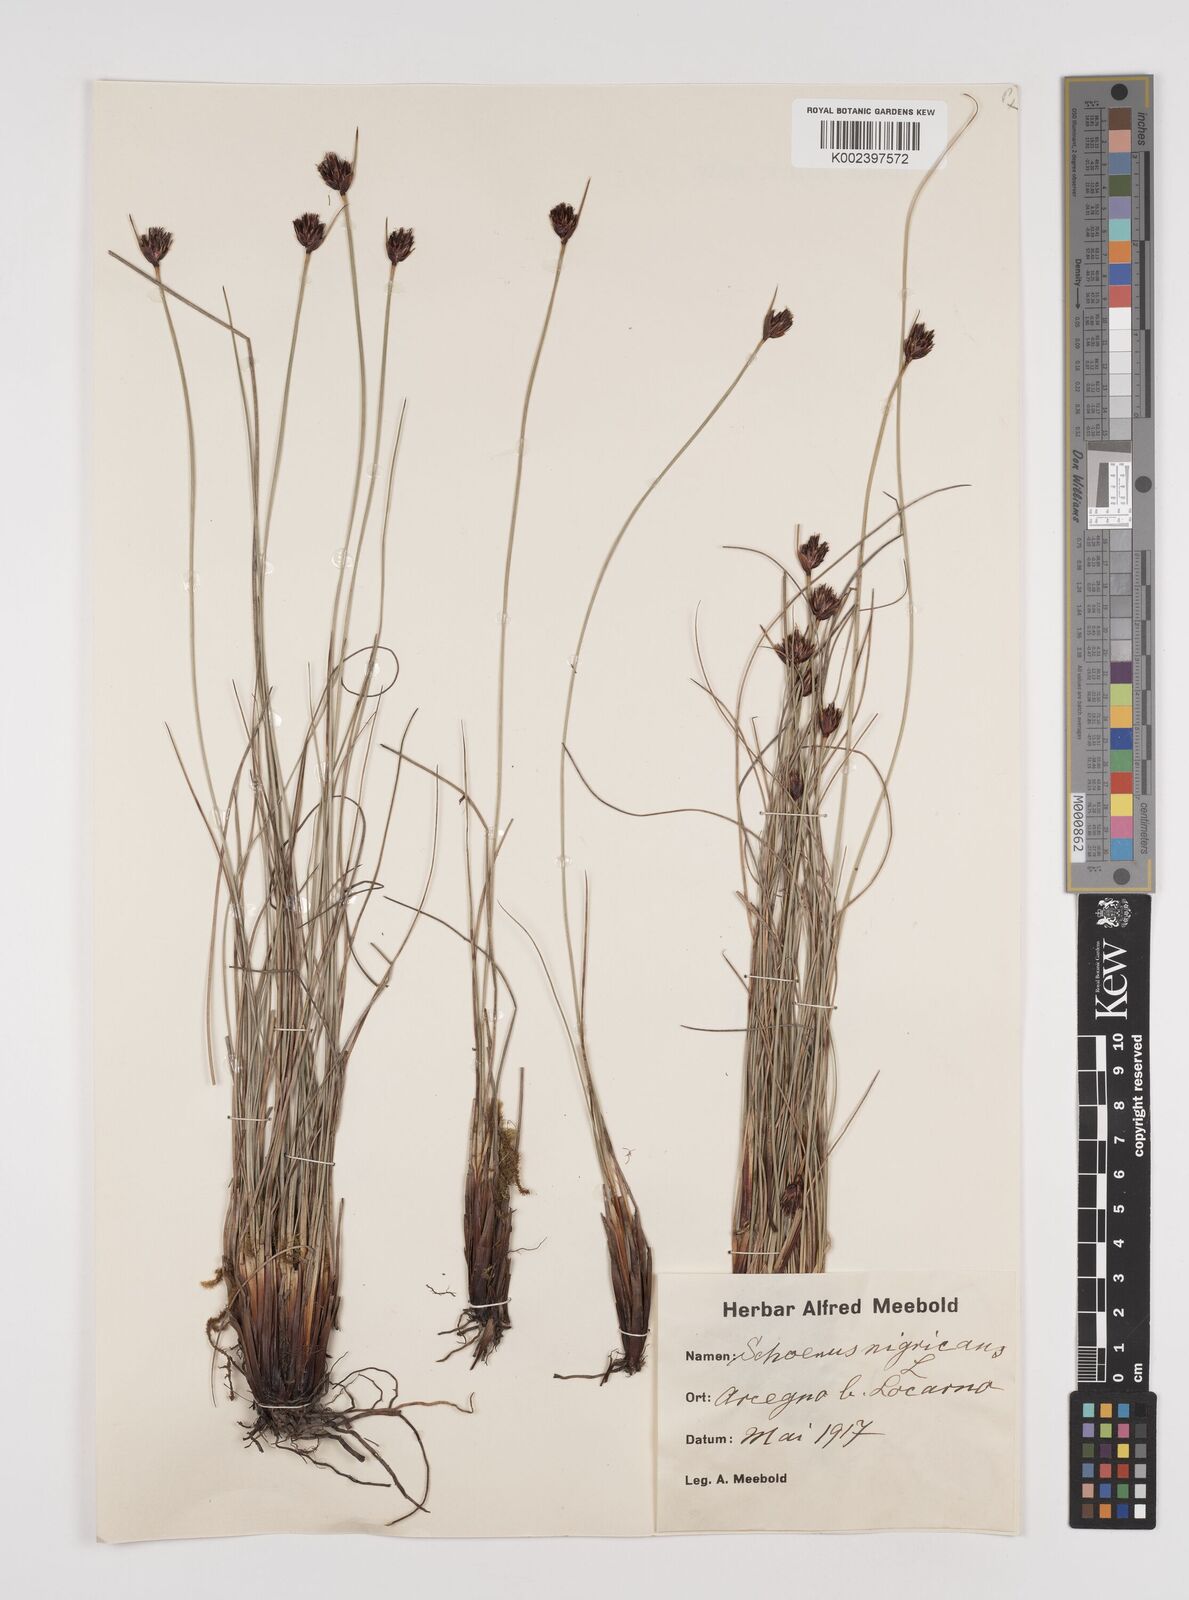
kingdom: Plantae
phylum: Tracheophyta
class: Liliopsida
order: Poales
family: Cyperaceae
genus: Schoenus
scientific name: Schoenus nigricans
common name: Black bog-rush
